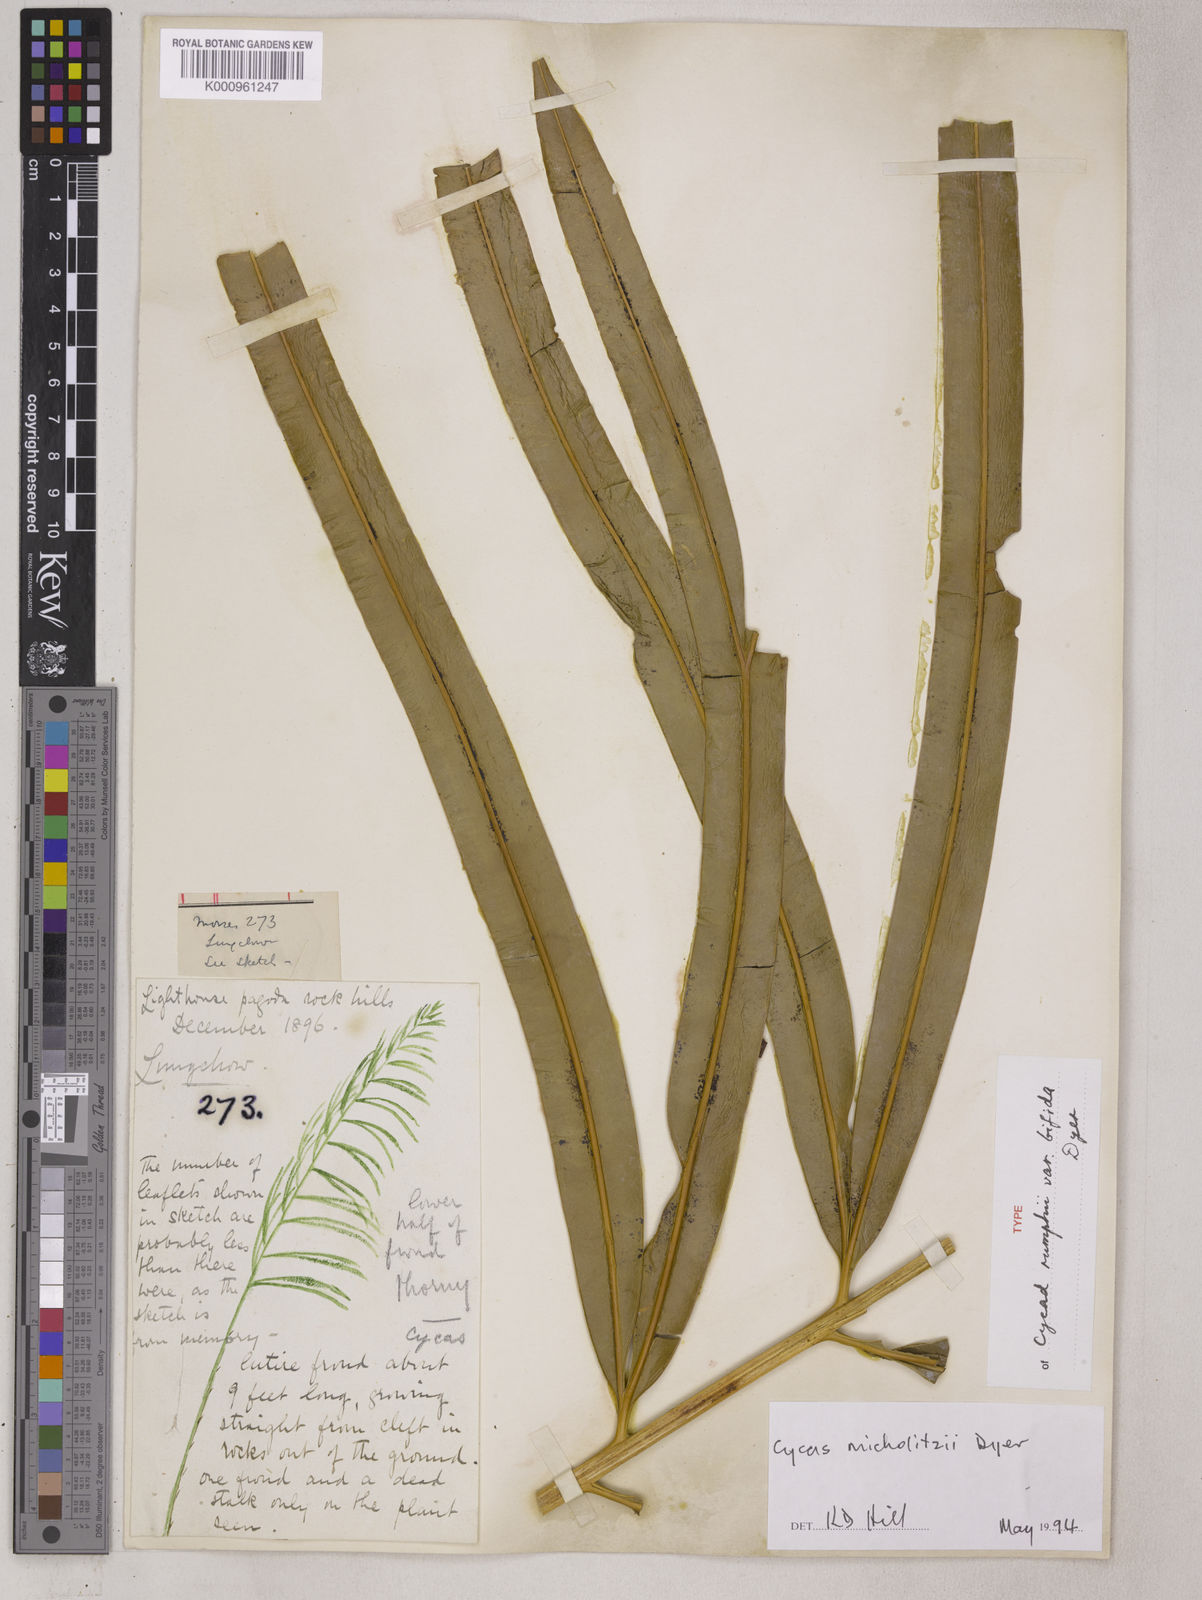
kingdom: Plantae
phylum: Tracheophyta
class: Cycadopsida
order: Cycadales
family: Cycadaceae
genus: Cycas
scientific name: Cycas micholitzii
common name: Fork-leaf cycas
